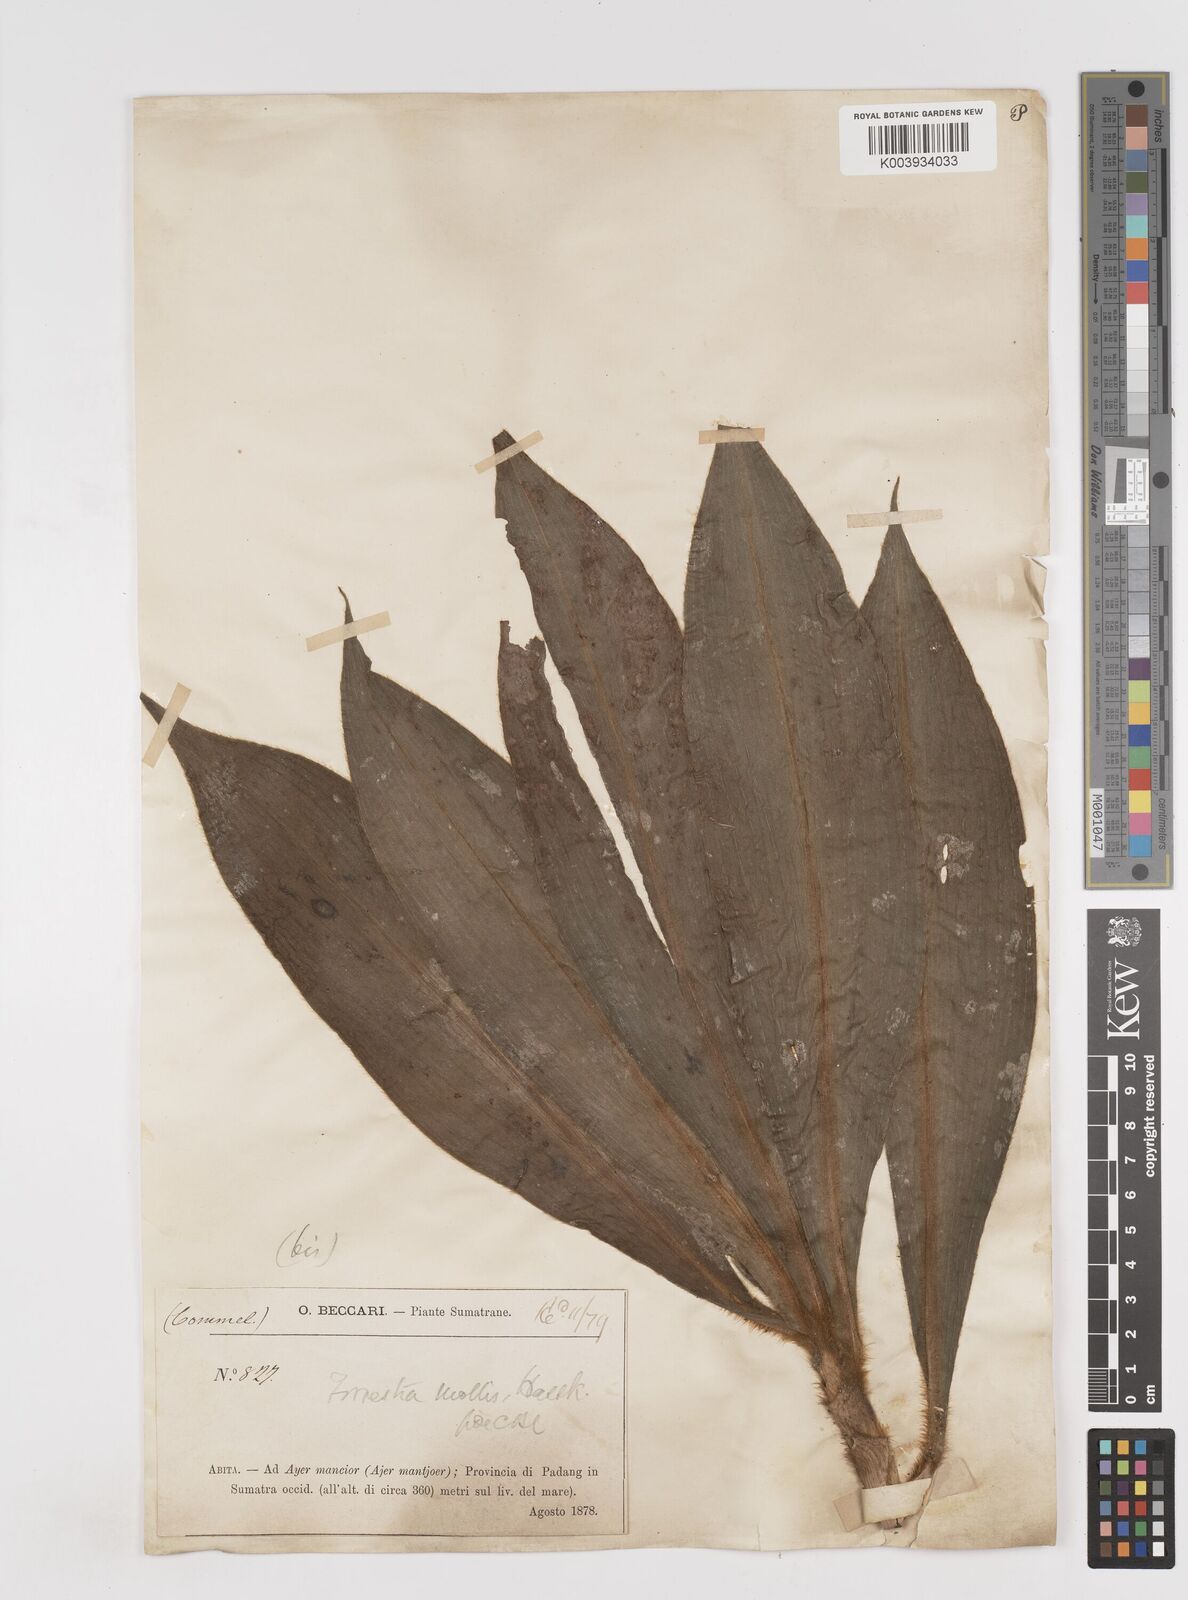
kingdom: Plantae
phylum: Tracheophyta
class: Liliopsida
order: Commelinales
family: Commelinaceae
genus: Amischotolype
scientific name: Amischotolype mollissima
